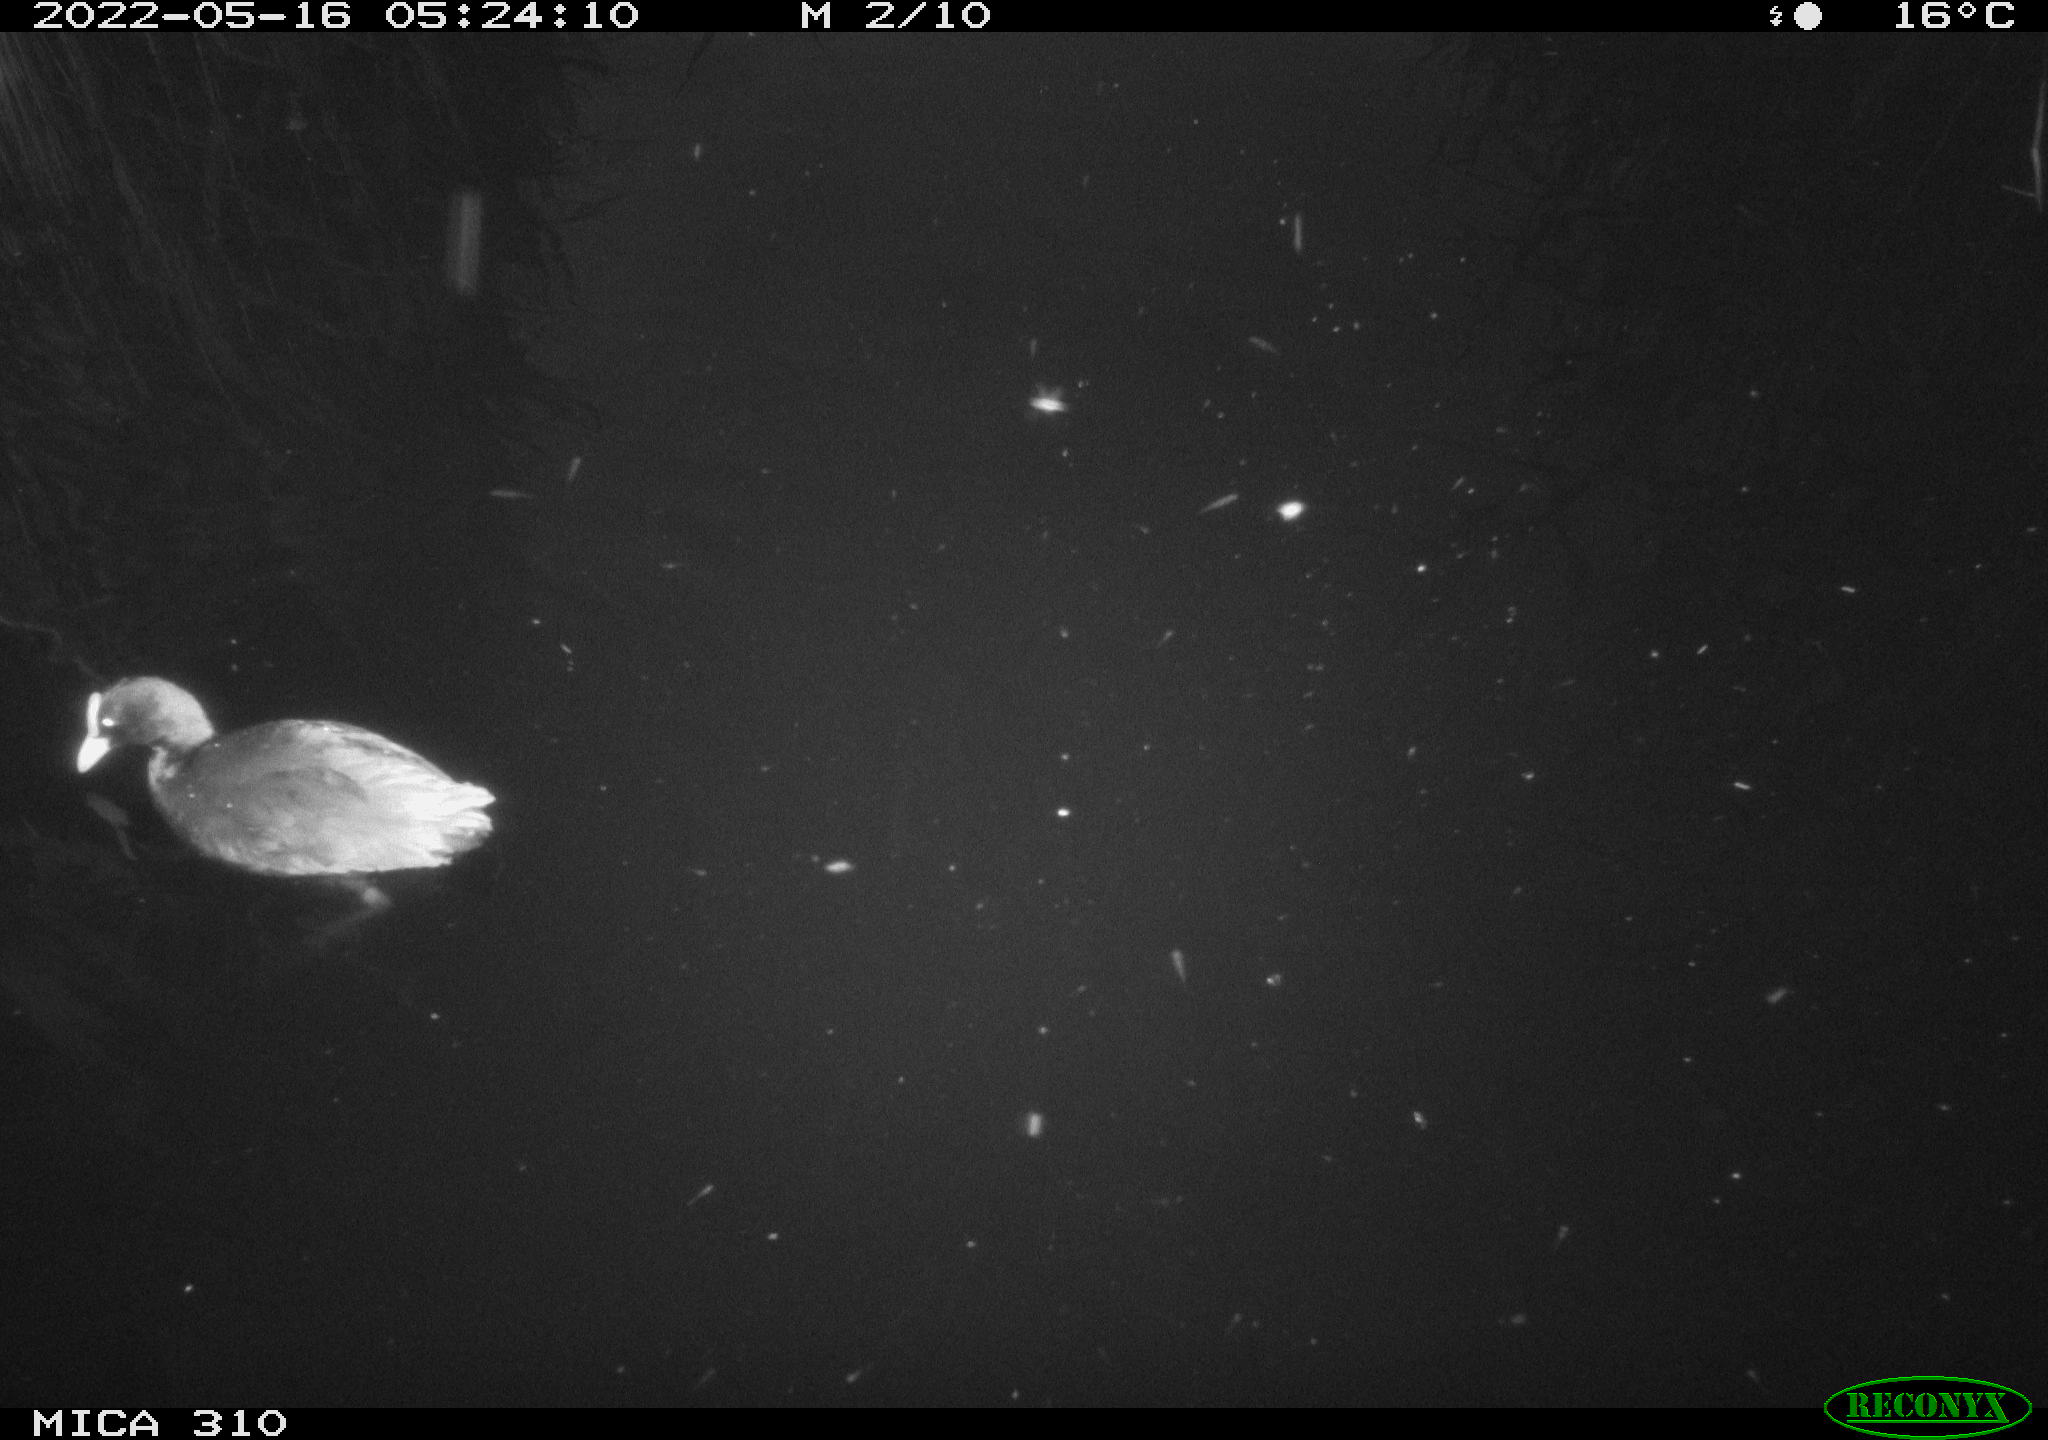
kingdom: Animalia
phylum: Chordata
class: Aves
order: Gruiformes
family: Rallidae
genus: Fulica
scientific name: Fulica atra
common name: Eurasian coot
